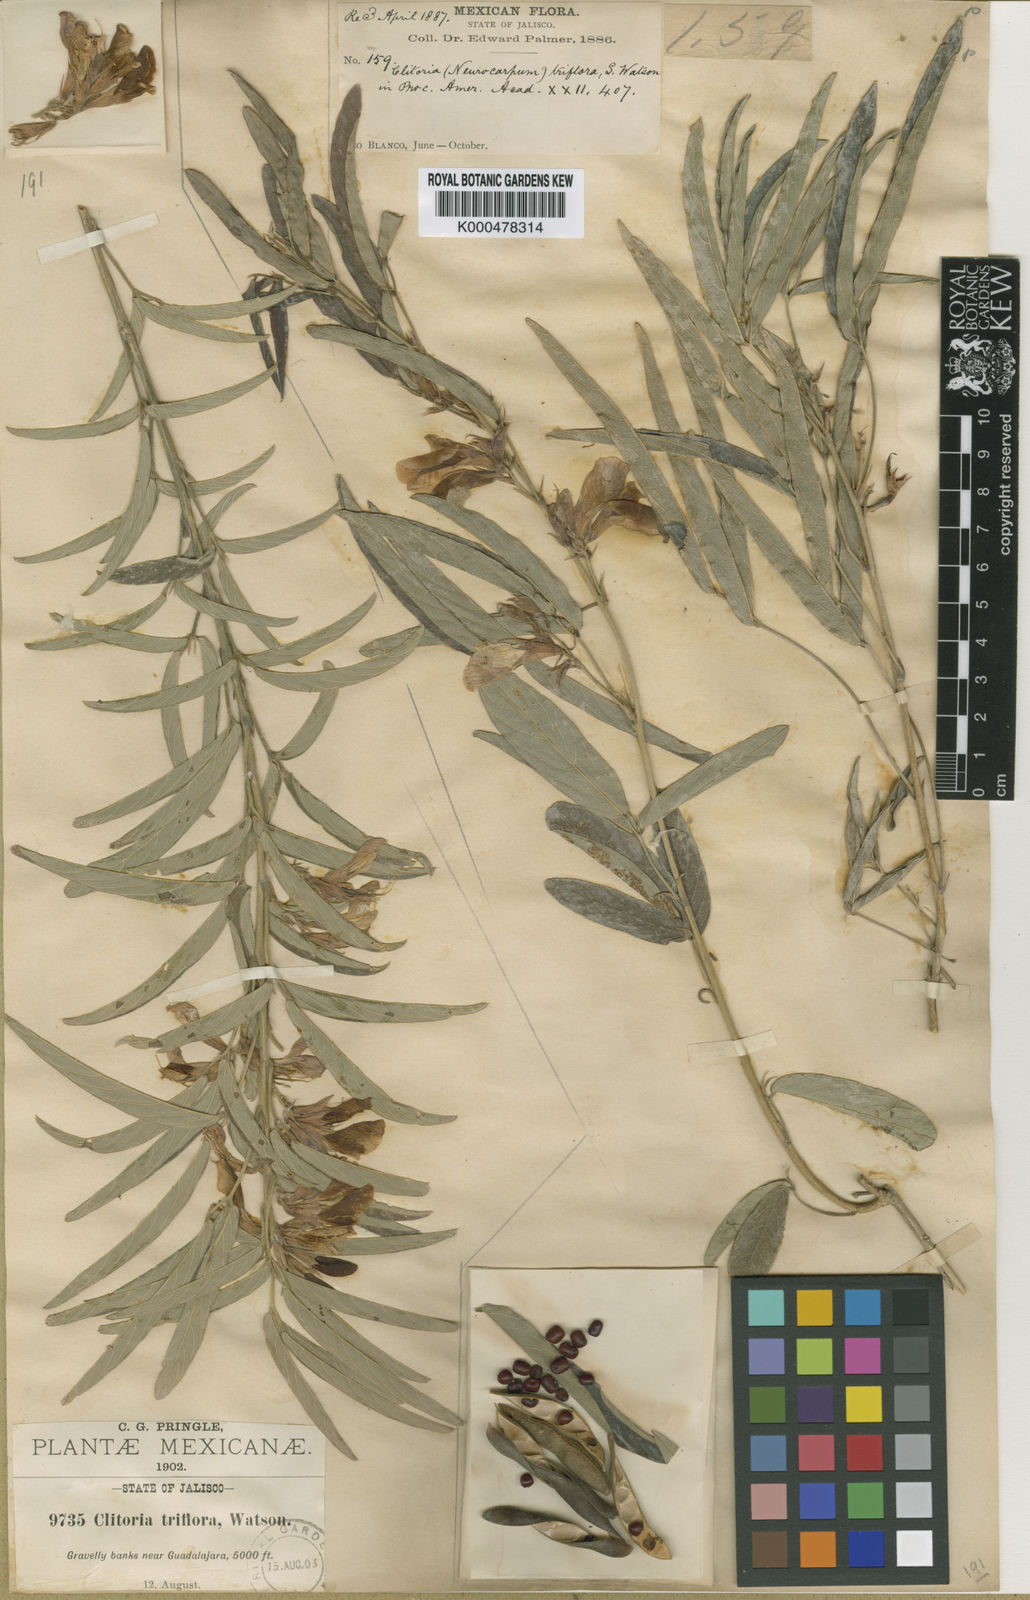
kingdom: Plantae
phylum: Tracheophyta
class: Magnoliopsida
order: Fabales
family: Fabaceae
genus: Clitoria
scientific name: Clitoria triflora
